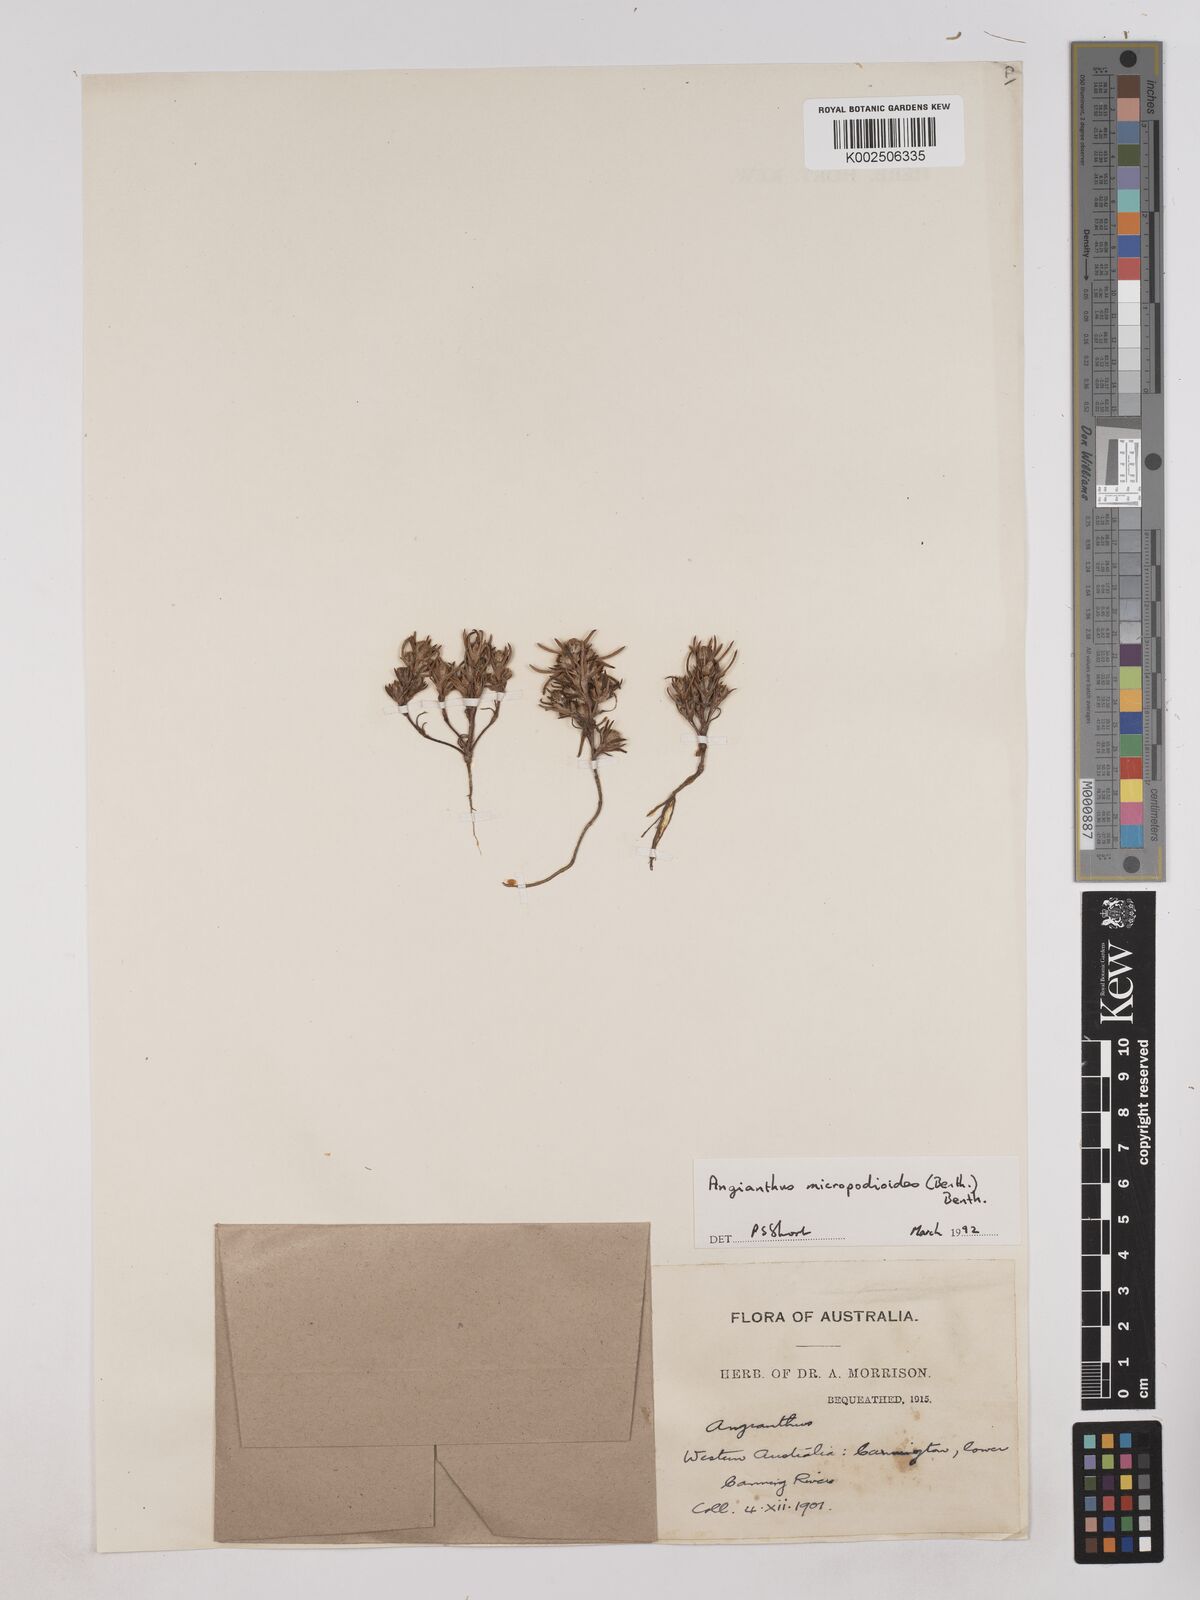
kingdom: Plantae
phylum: Tracheophyta
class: Magnoliopsida
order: Asterales
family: Asteraceae
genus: Angianthus
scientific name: Angianthus micropodioides
